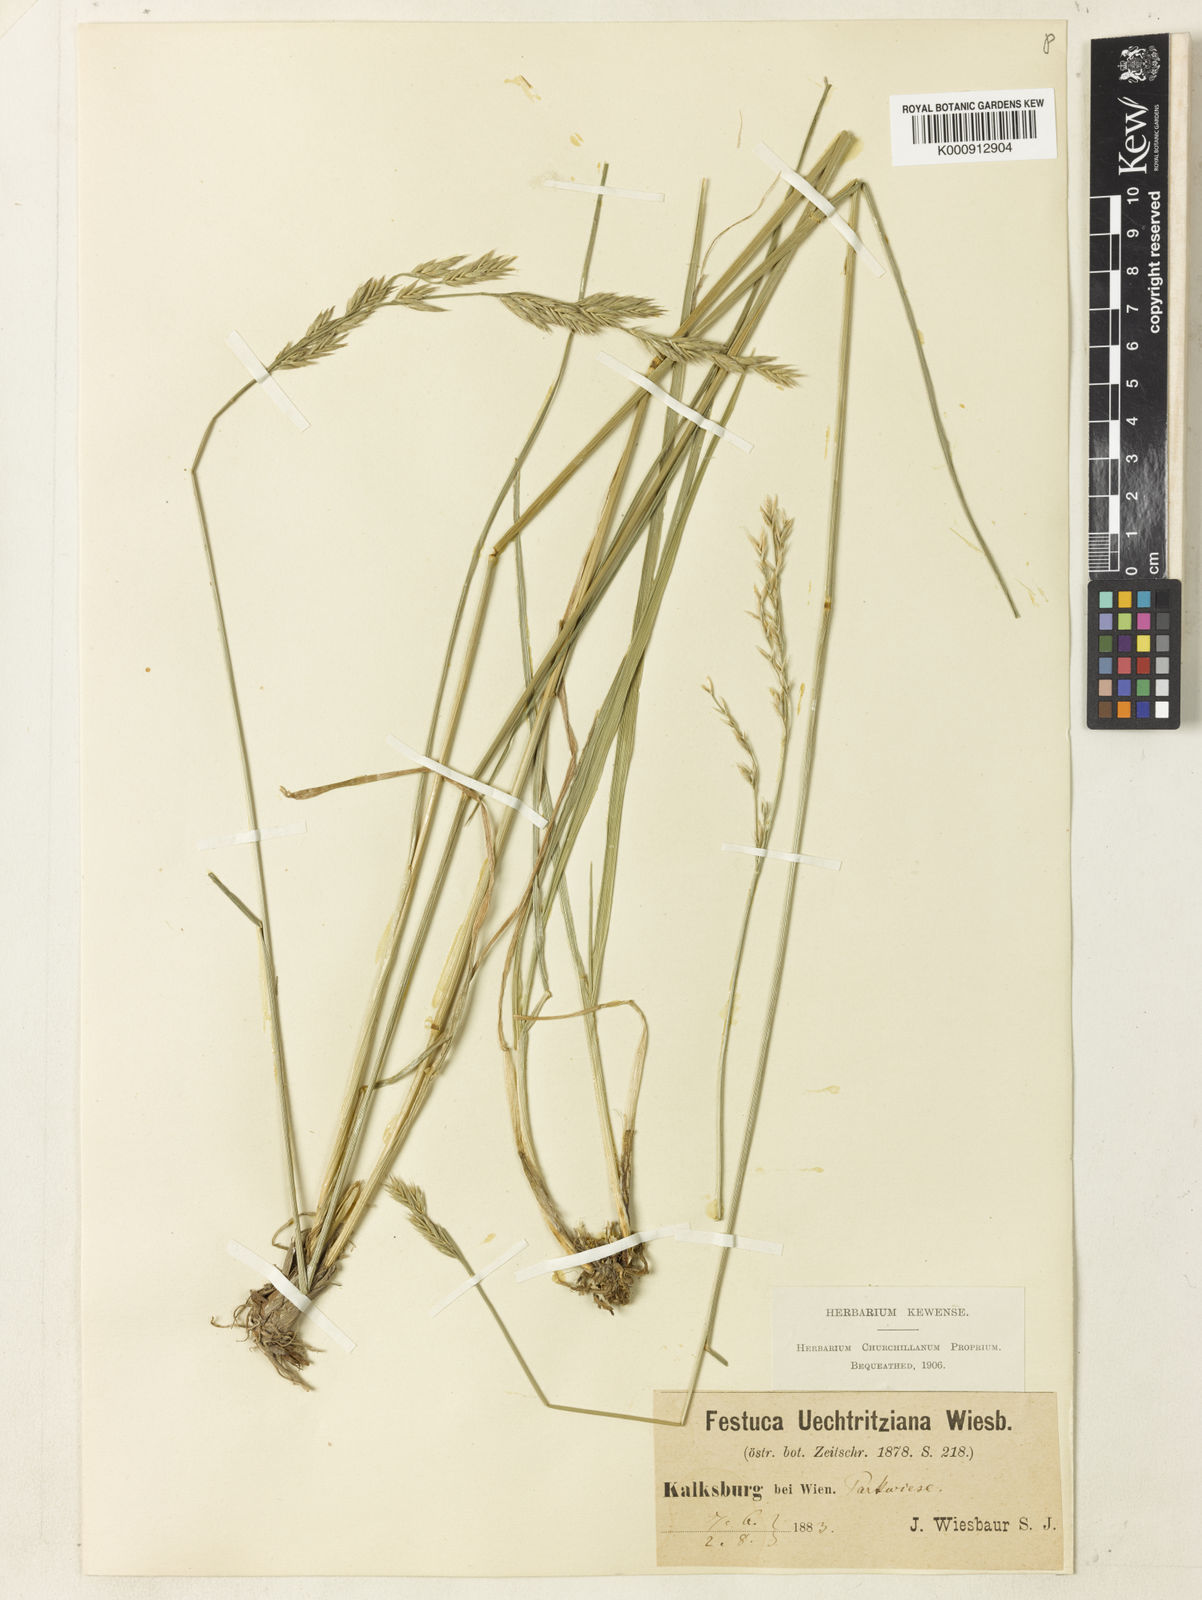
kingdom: Plantae
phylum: Tracheophyta
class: Liliopsida
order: Poales
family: Poaceae
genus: Lolium
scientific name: Lolium arundinaceum
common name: Reed fescue
